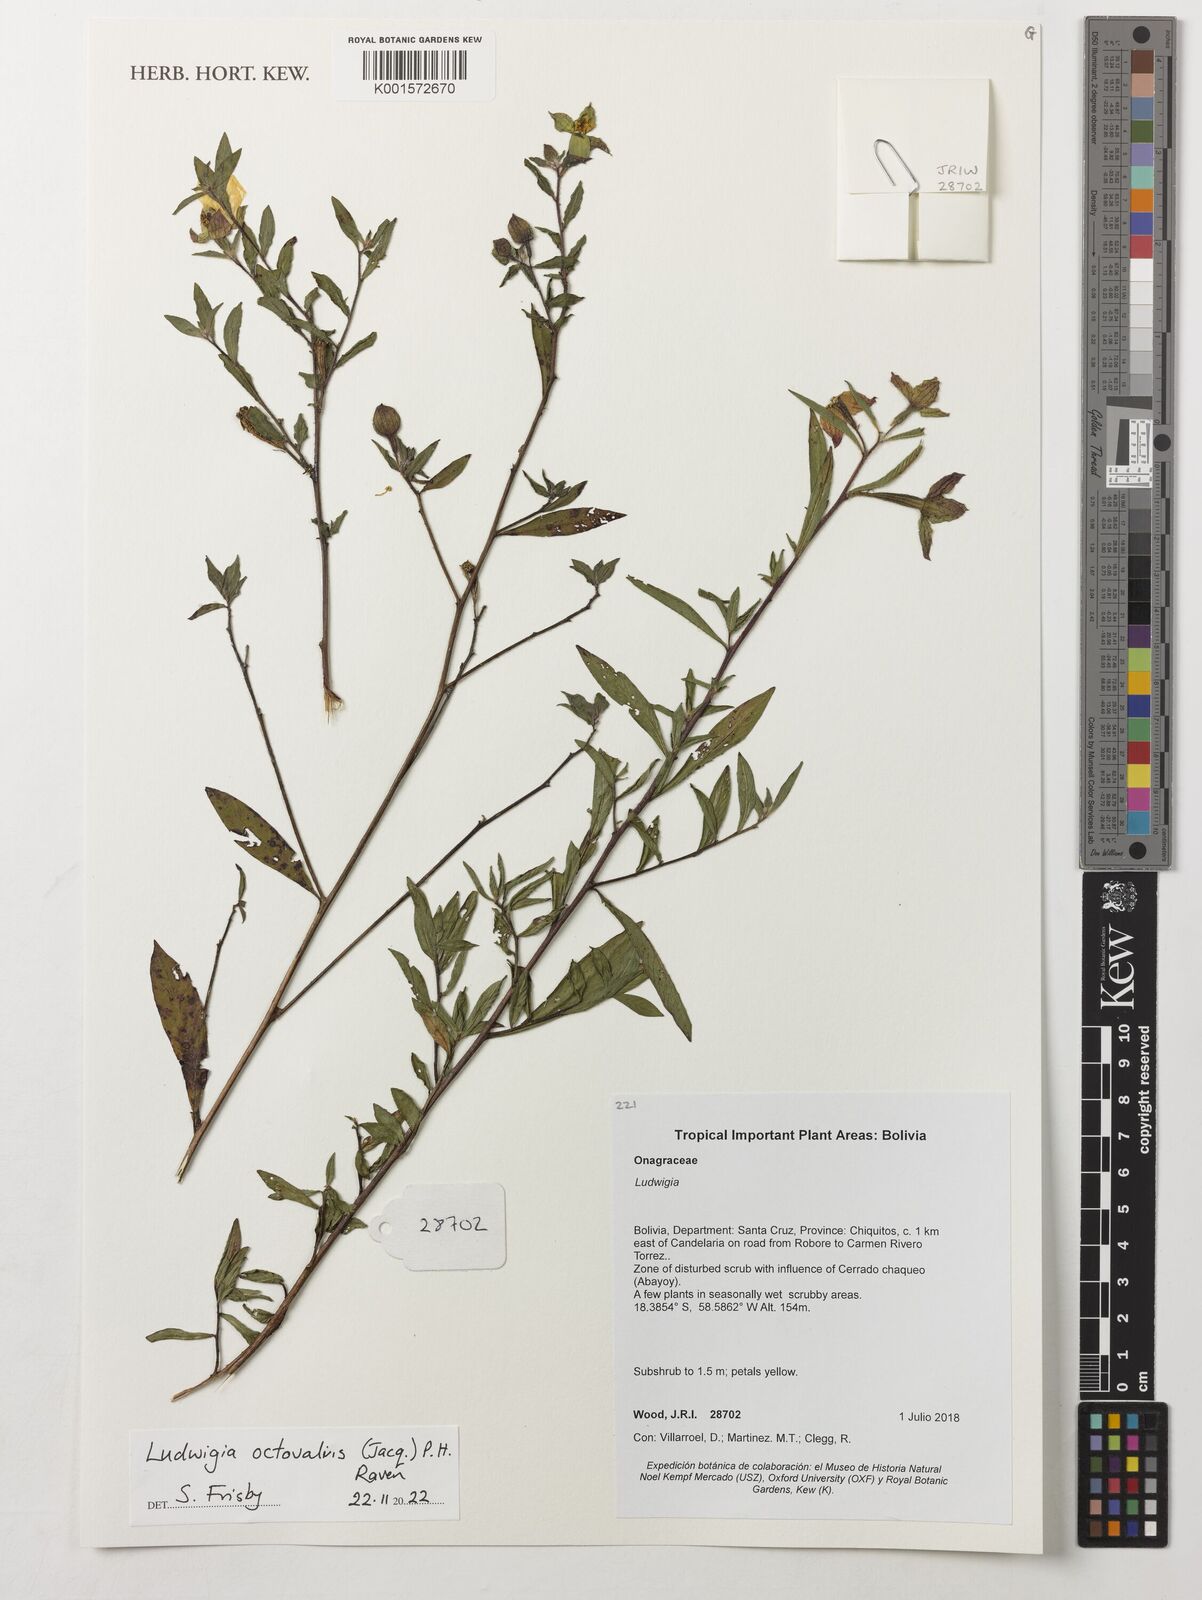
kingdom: Plantae
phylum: Tracheophyta
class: Magnoliopsida
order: Myrtales
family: Onagraceae
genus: Ludwigia
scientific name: Ludwigia octovalvis
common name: Water-primrose
